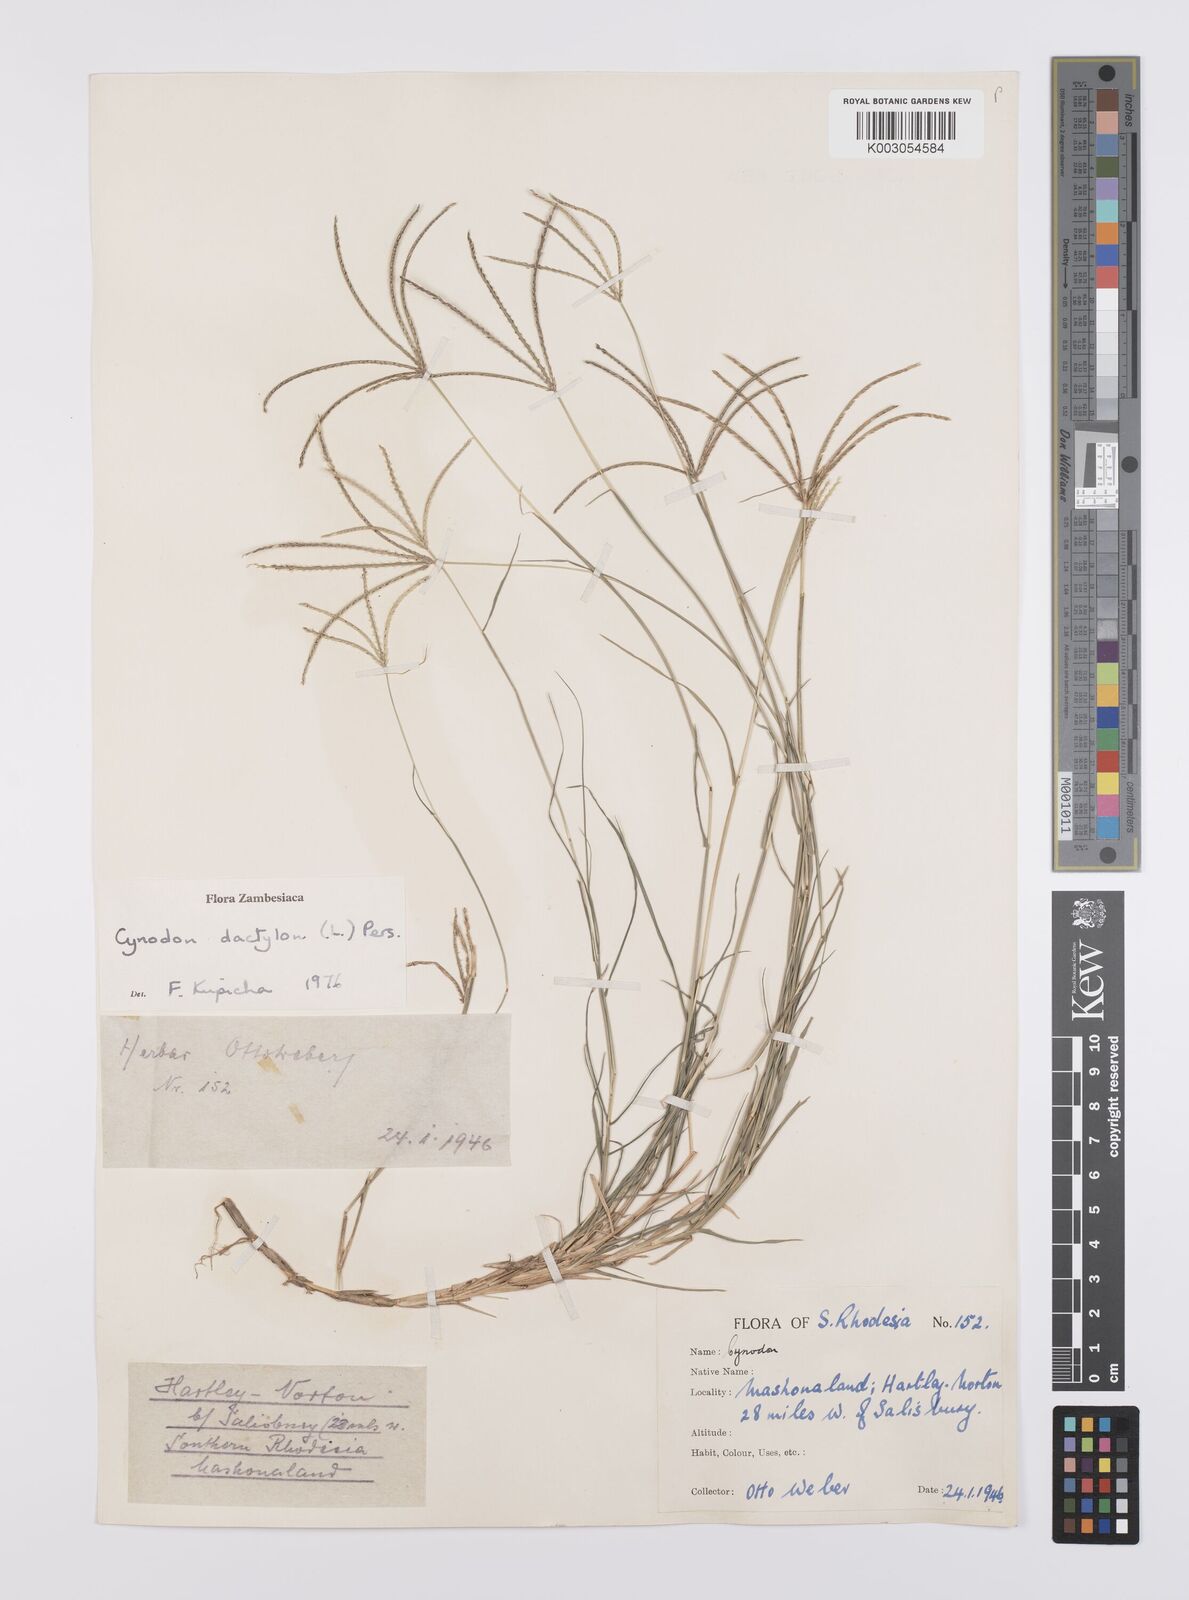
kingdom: Plantae
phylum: Tracheophyta
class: Liliopsida
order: Poales
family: Poaceae
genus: Cynodon
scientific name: Cynodon dactylon
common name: Bermuda grass
